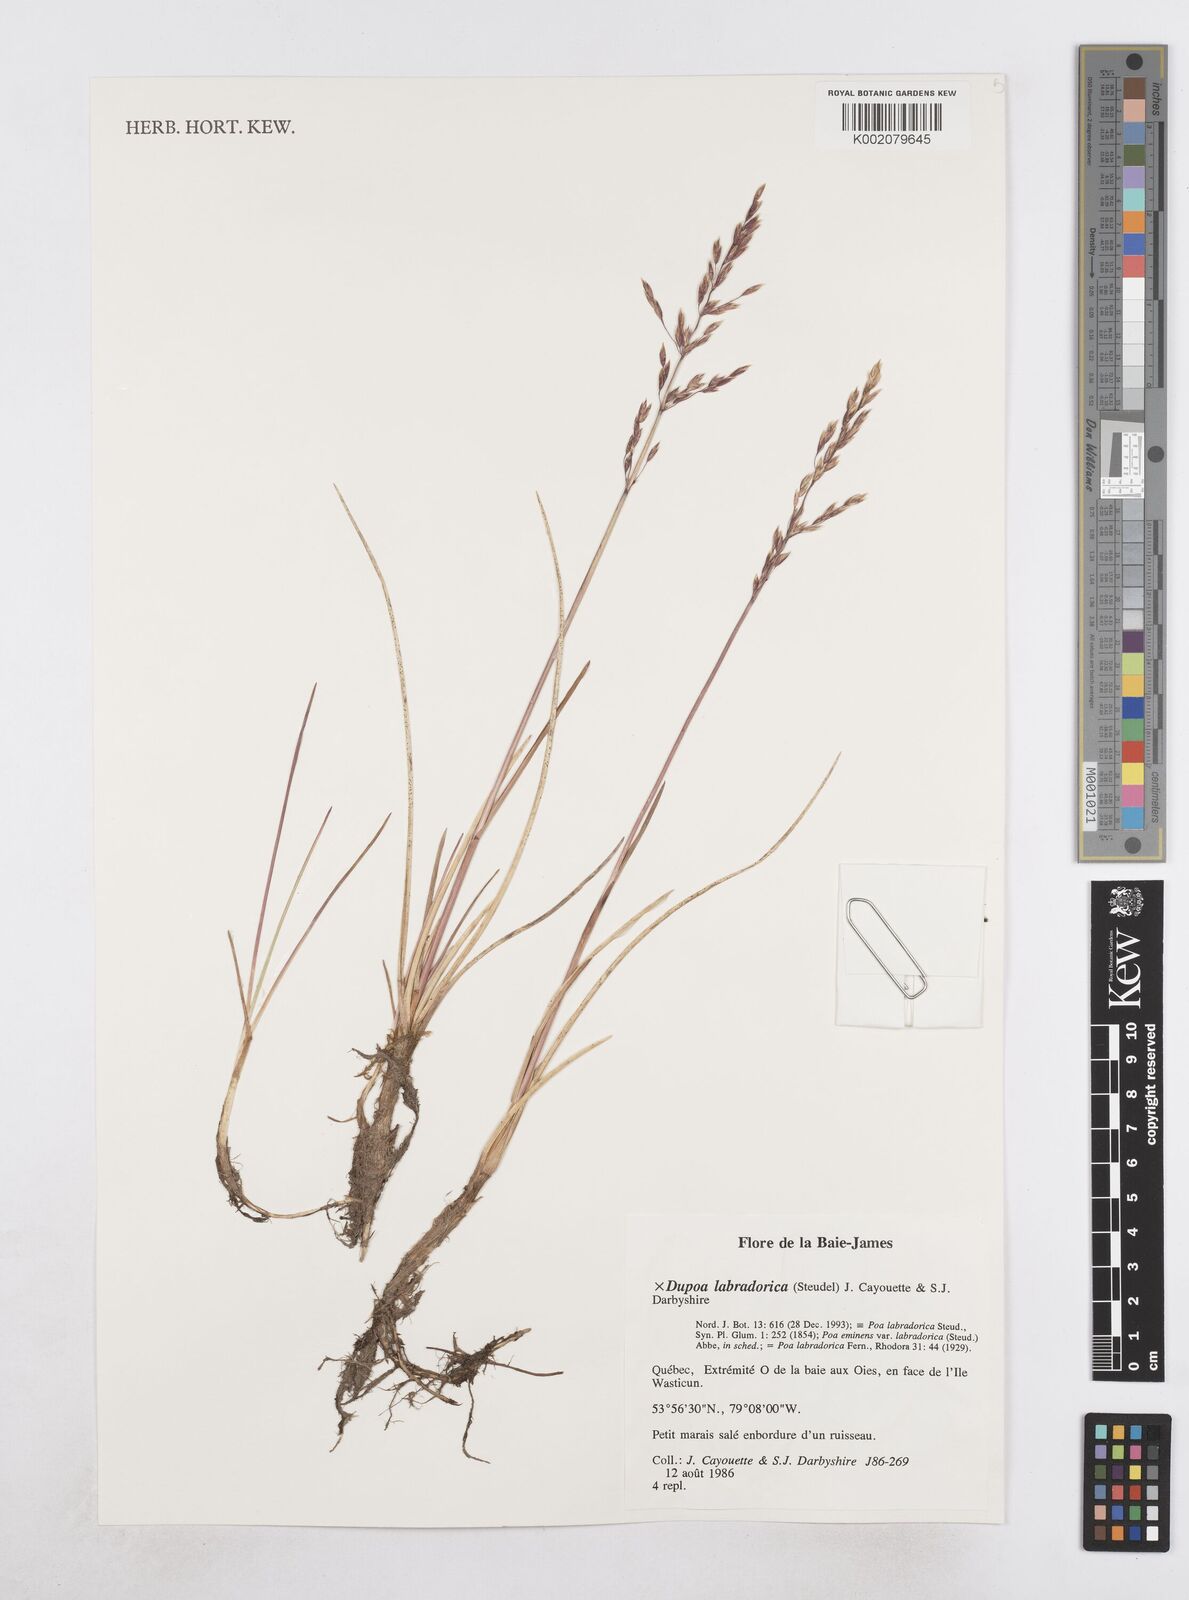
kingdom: Plantae
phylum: Tracheophyta
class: Liliopsida
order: Poales
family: Poaceae
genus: Dupontia
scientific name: Dupontia
